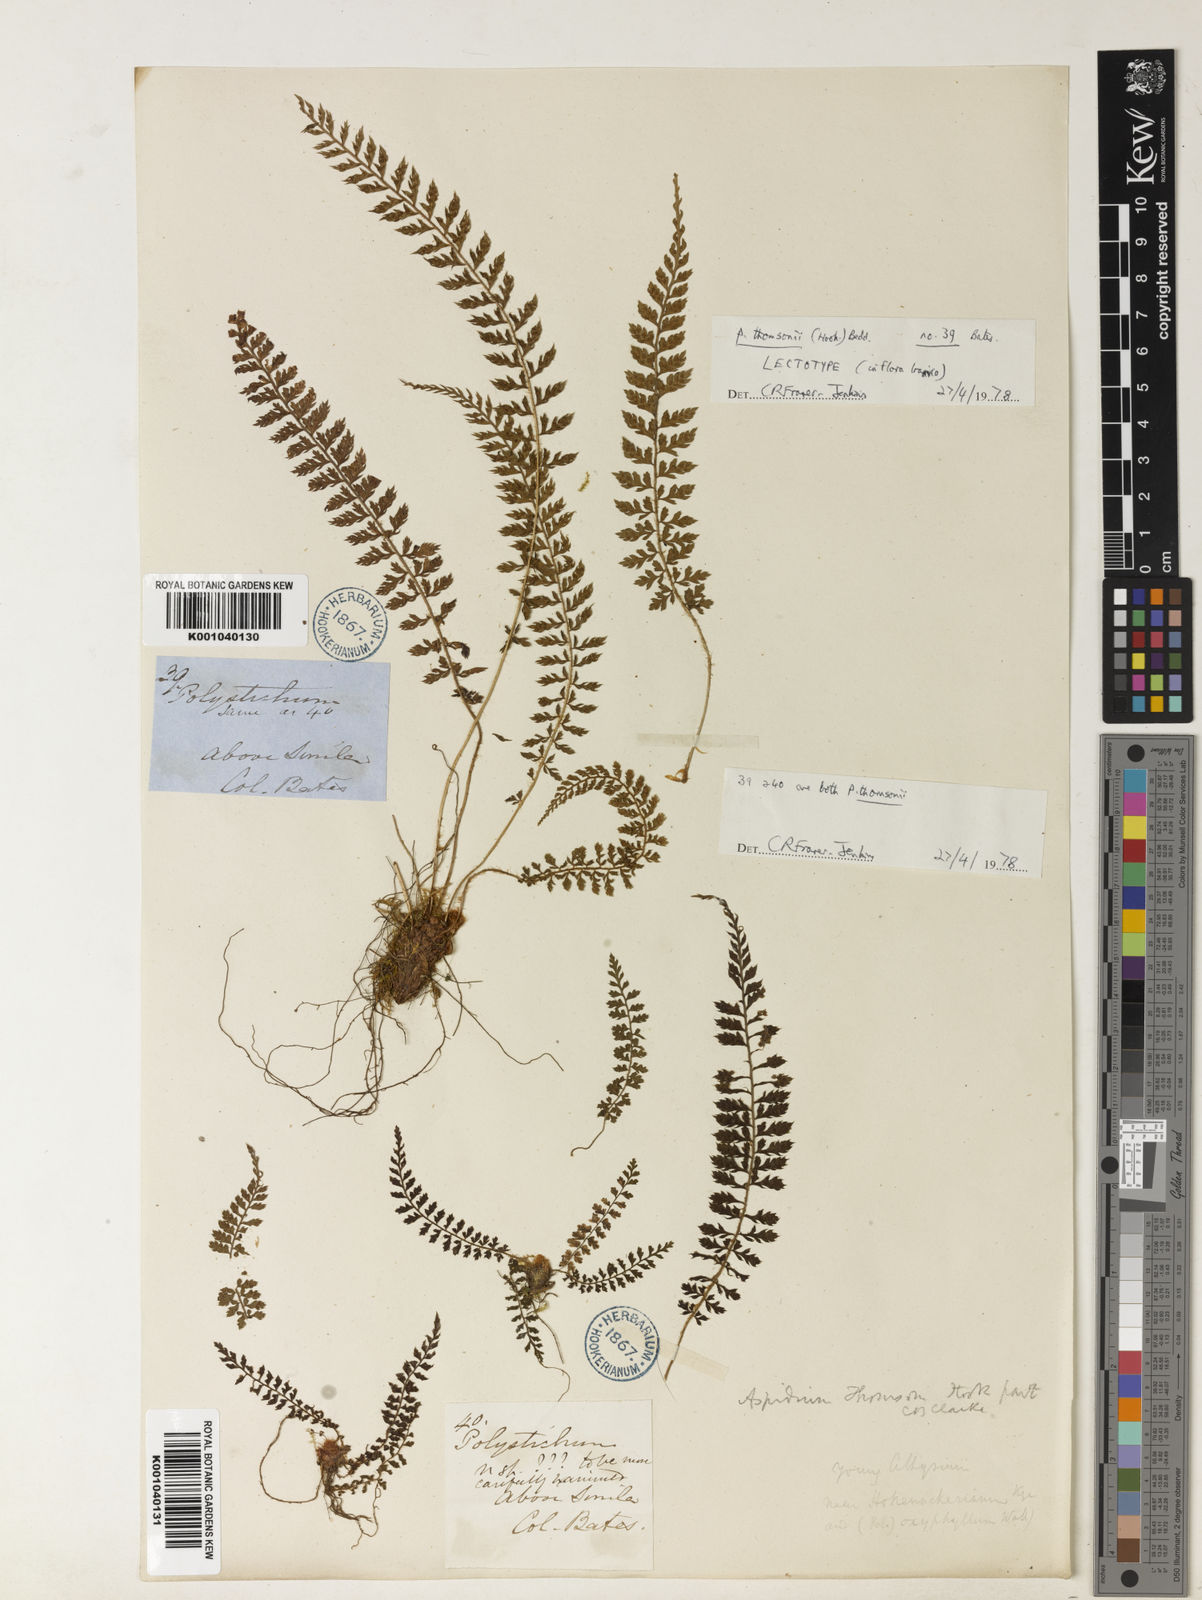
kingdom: Plantae
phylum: Tracheophyta
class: Polypodiopsida
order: Polypodiales
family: Dryopteridaceae
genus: Polystichum
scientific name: Polystichum thomsonii
